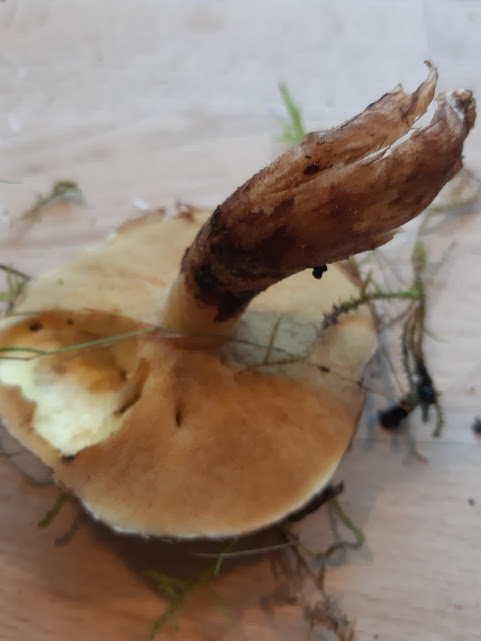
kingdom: Fungi
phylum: Basidiomycota
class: Agaricomycetes
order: Boletales
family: Suillaceae
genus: Suillus
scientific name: Suillus luteus
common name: brungul slimrørhat
